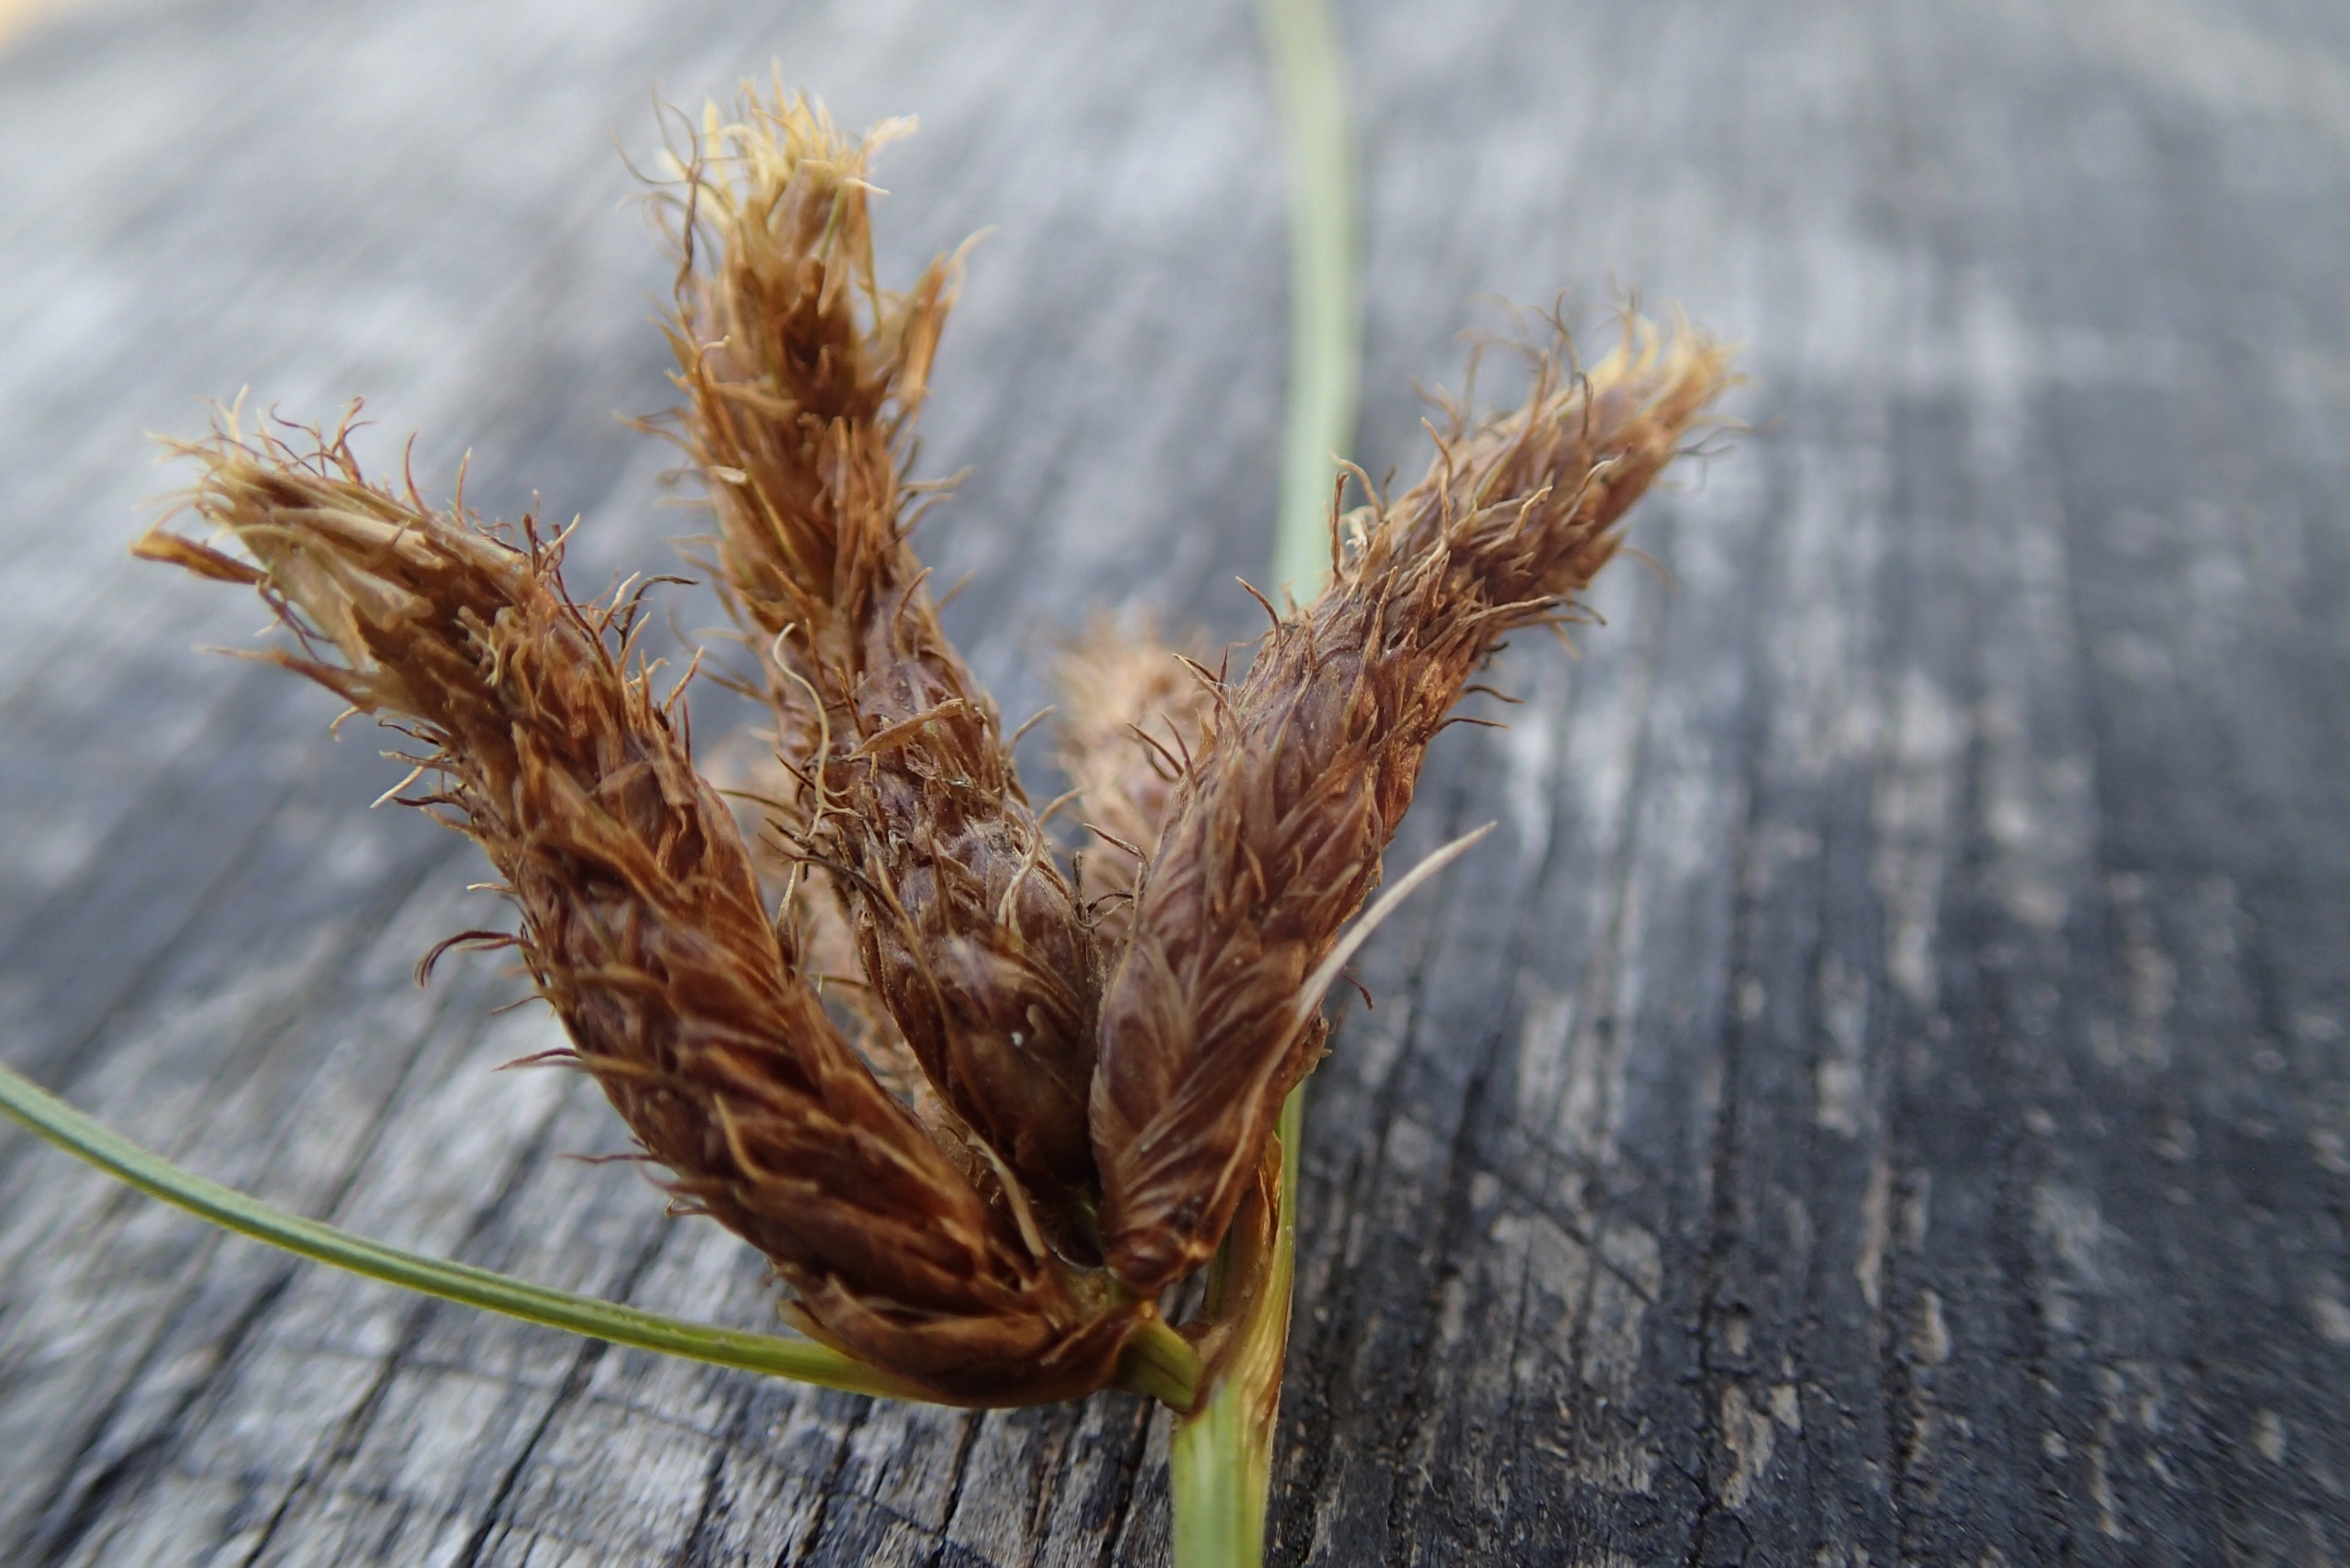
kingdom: Plantae
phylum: Tracheophyta
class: Liliopsida
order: Poales
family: Cyperaceae
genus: Bolboschoenus
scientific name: Bolboschoenus maritimus
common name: Strand-kogleaks
